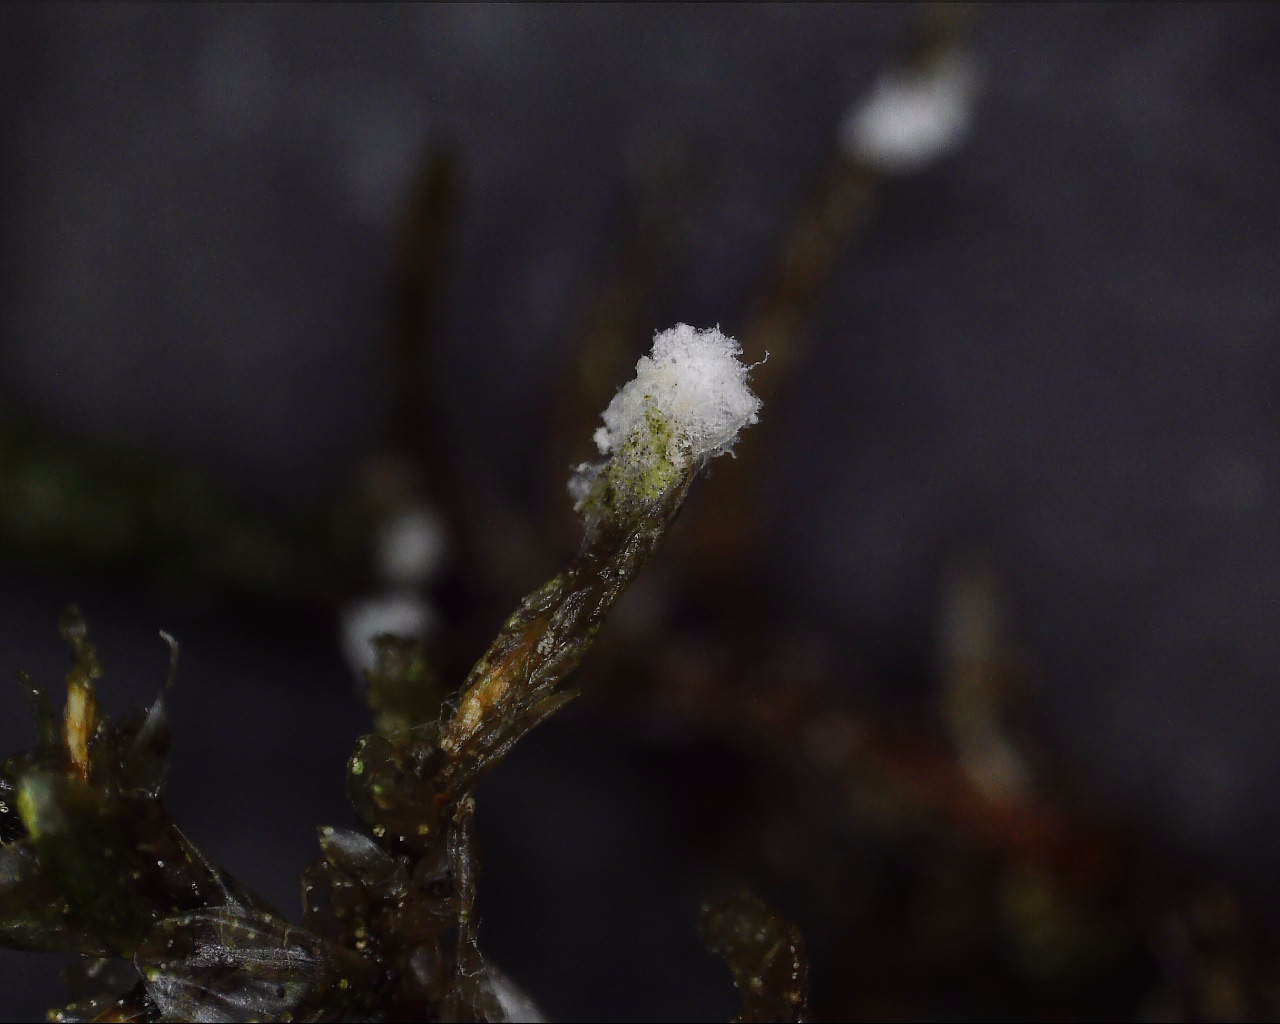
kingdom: Fungi
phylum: Ascomycota
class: Sordariomycetes
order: Hypocreales
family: Hypocreaceae
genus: Hypomyces
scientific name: Hypomyces
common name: snylteskorpe
